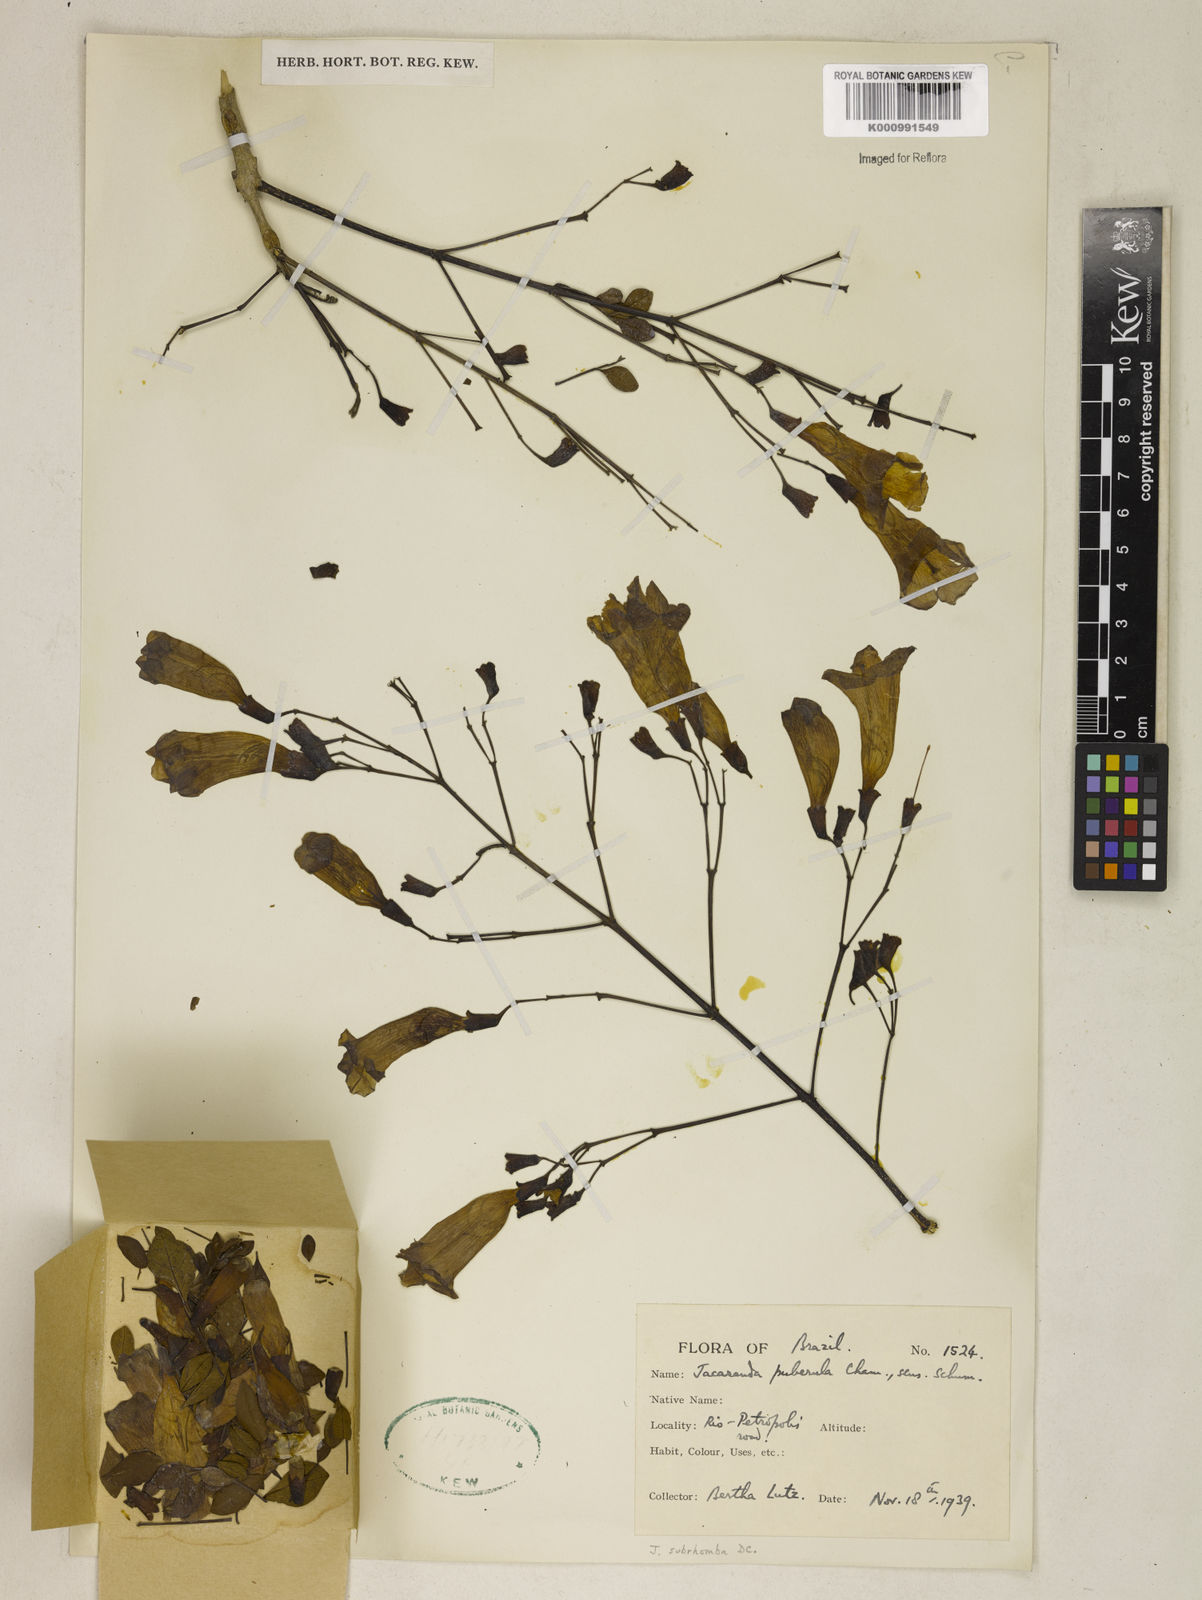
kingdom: Plantae
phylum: Tracheophyta
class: Magnoliopsida
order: Lamiales
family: Bignoniaceae
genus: Jacaranda
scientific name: Jacaranda puberula
